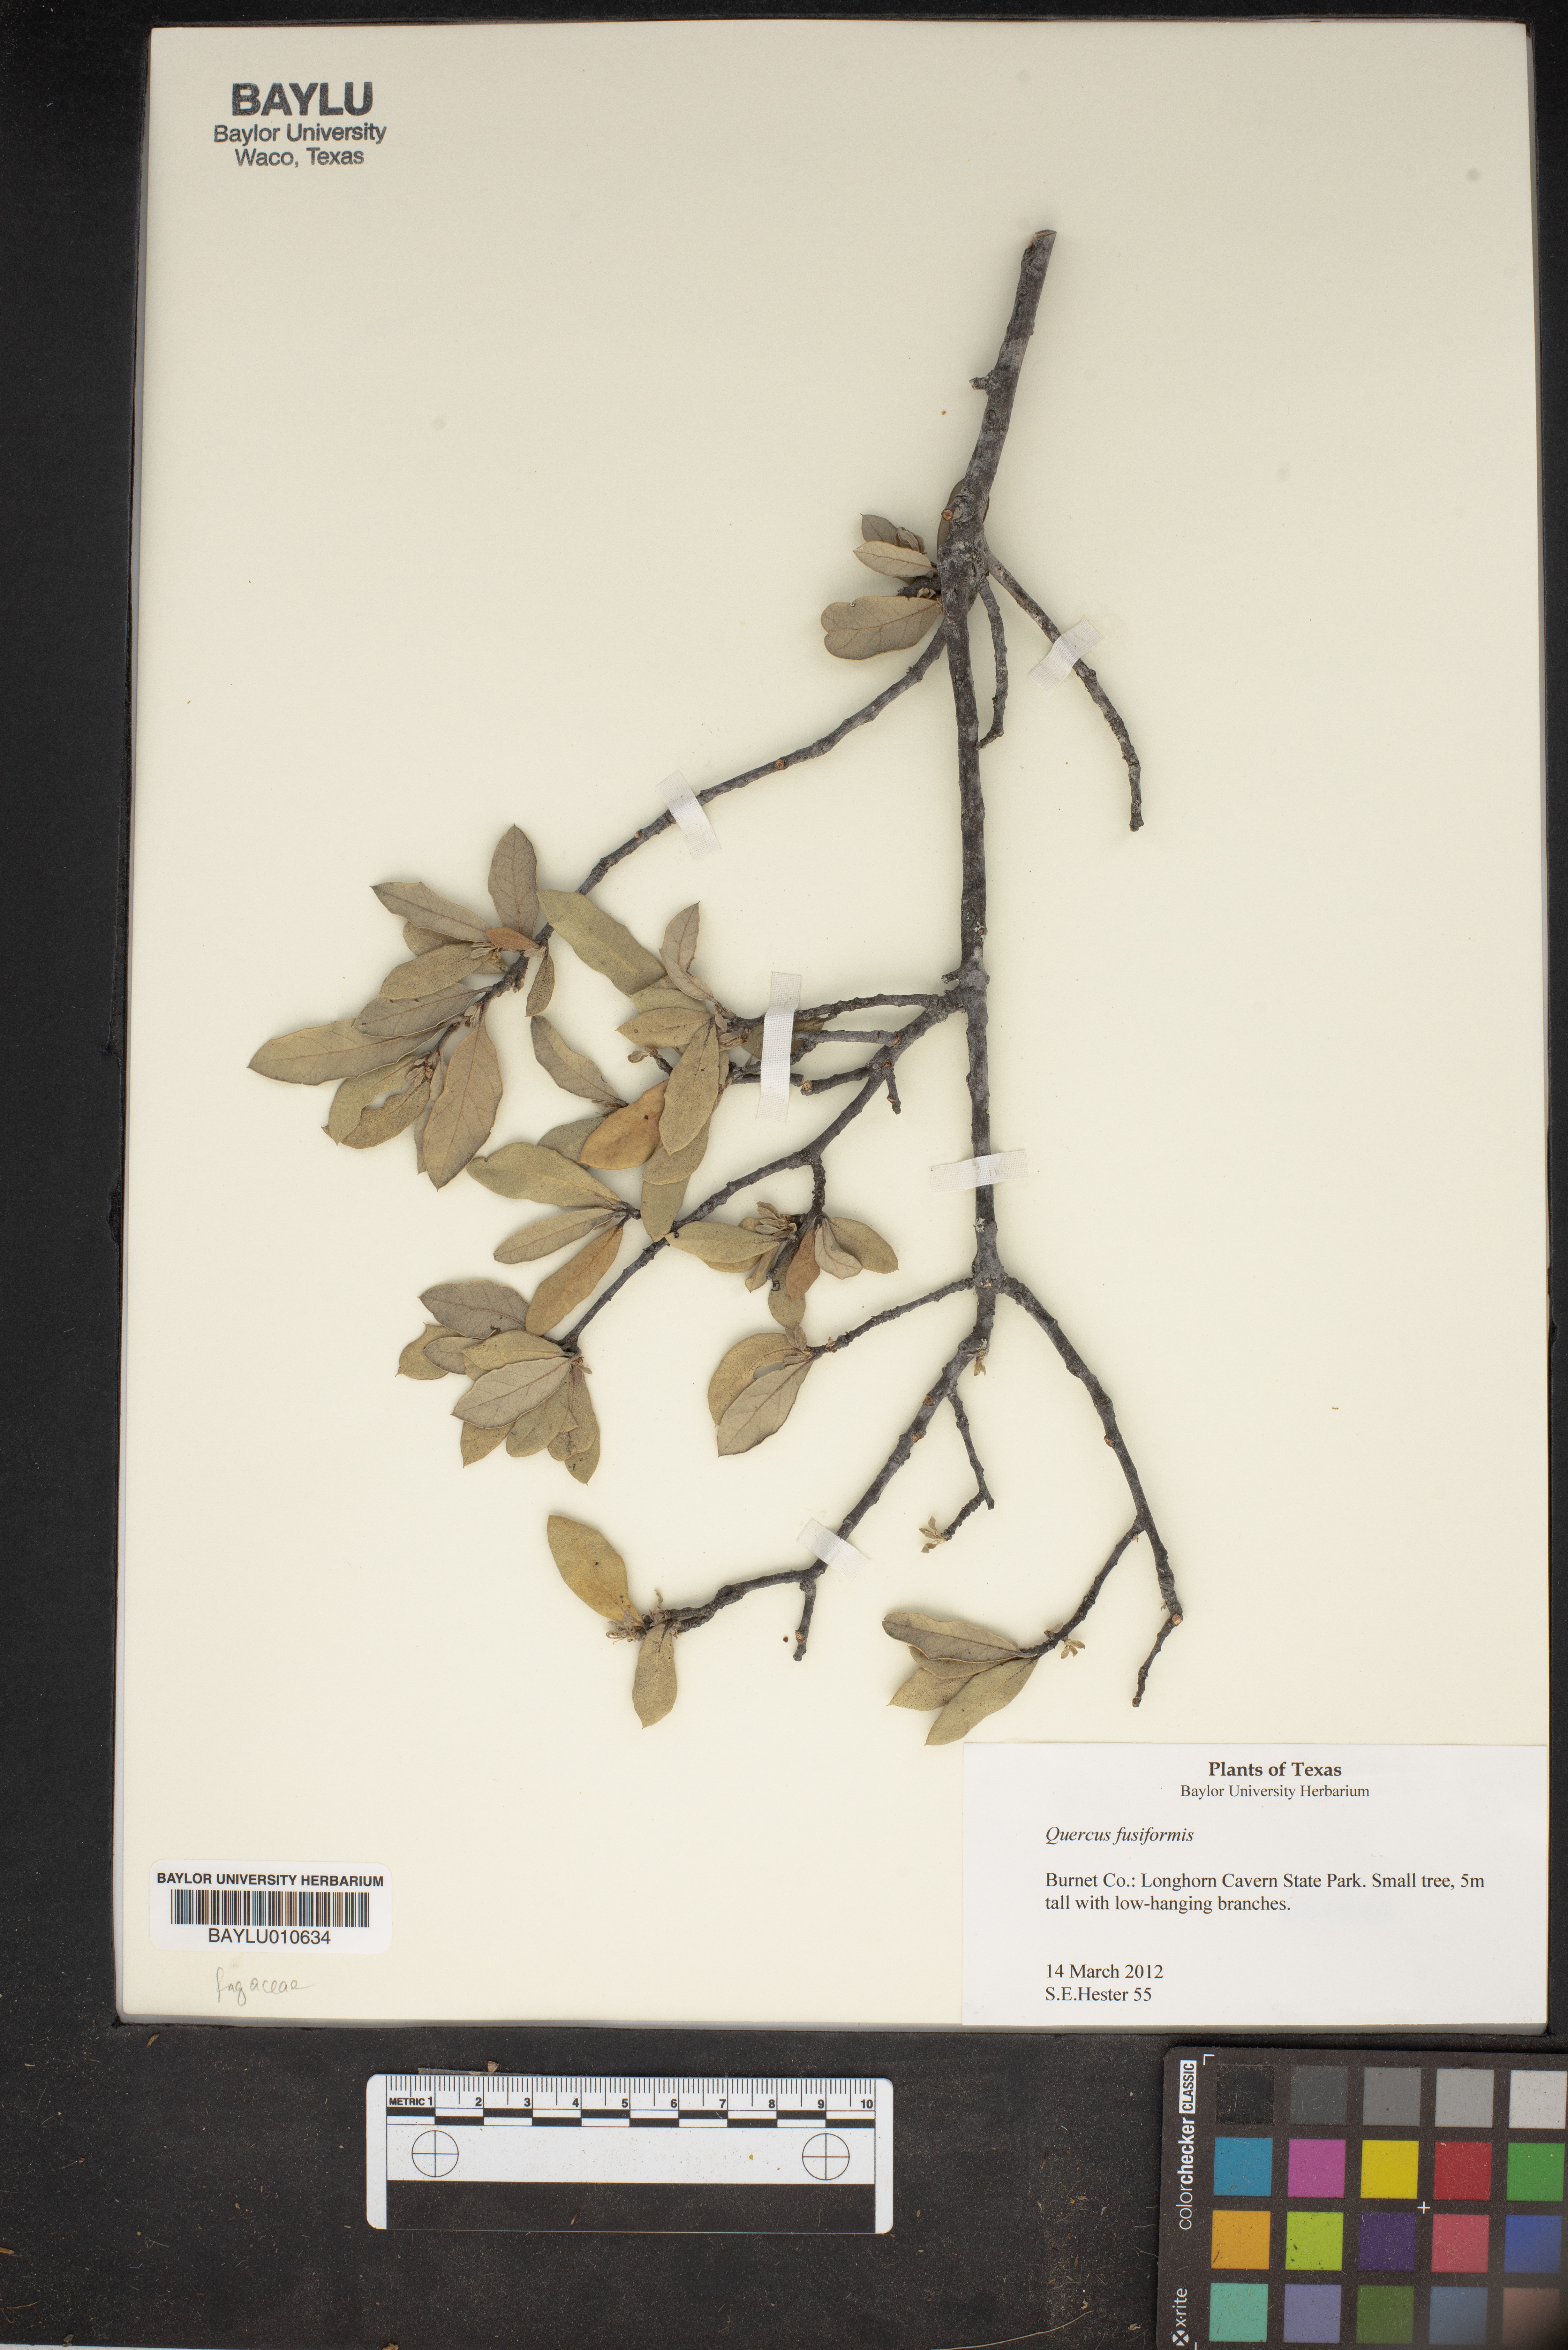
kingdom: Plantae
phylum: Tracheophyta
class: Magnoliopsida
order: Fagales
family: Fagaceae
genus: Quercus
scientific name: Quercus fusiformis
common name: Texas live oak
